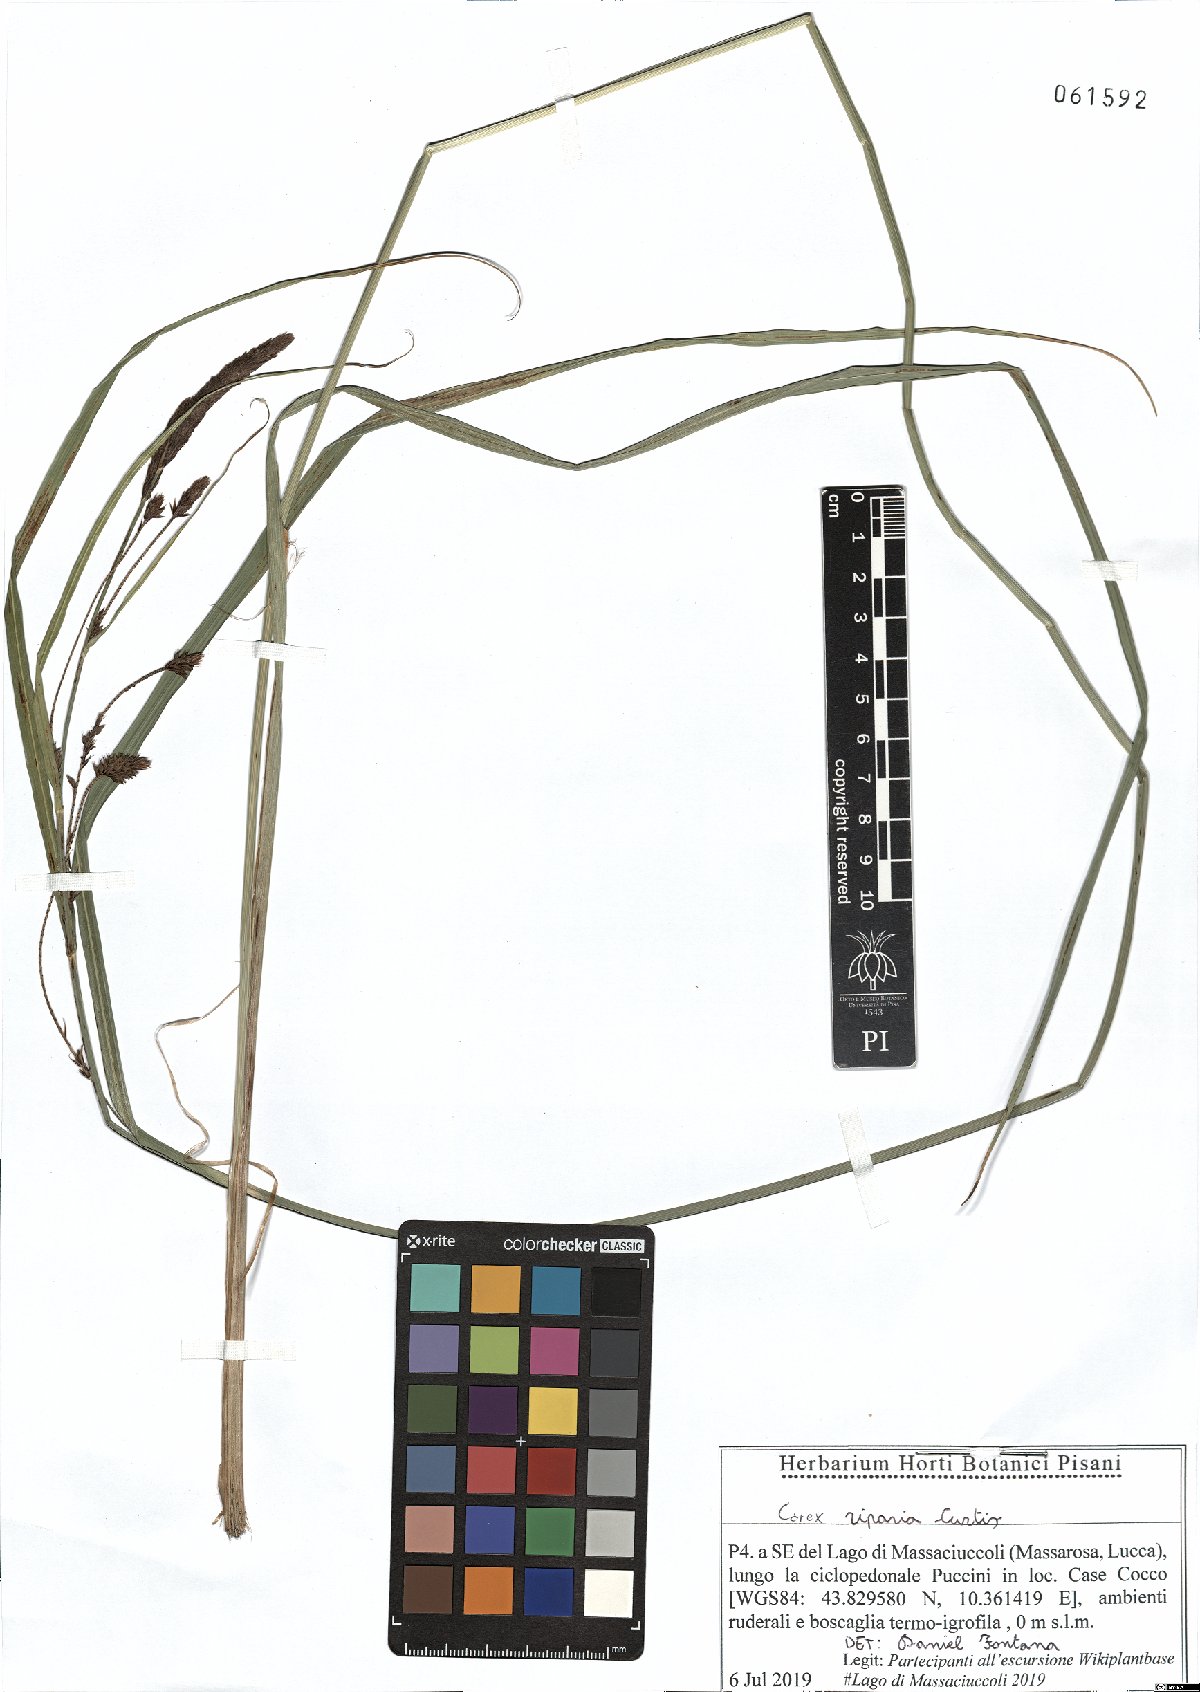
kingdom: Plantae
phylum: Tracheophyta
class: Liliopsida
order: Poales
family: Cyperaceae
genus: Carex
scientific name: Carex riparia
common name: Greater pond-sedge
